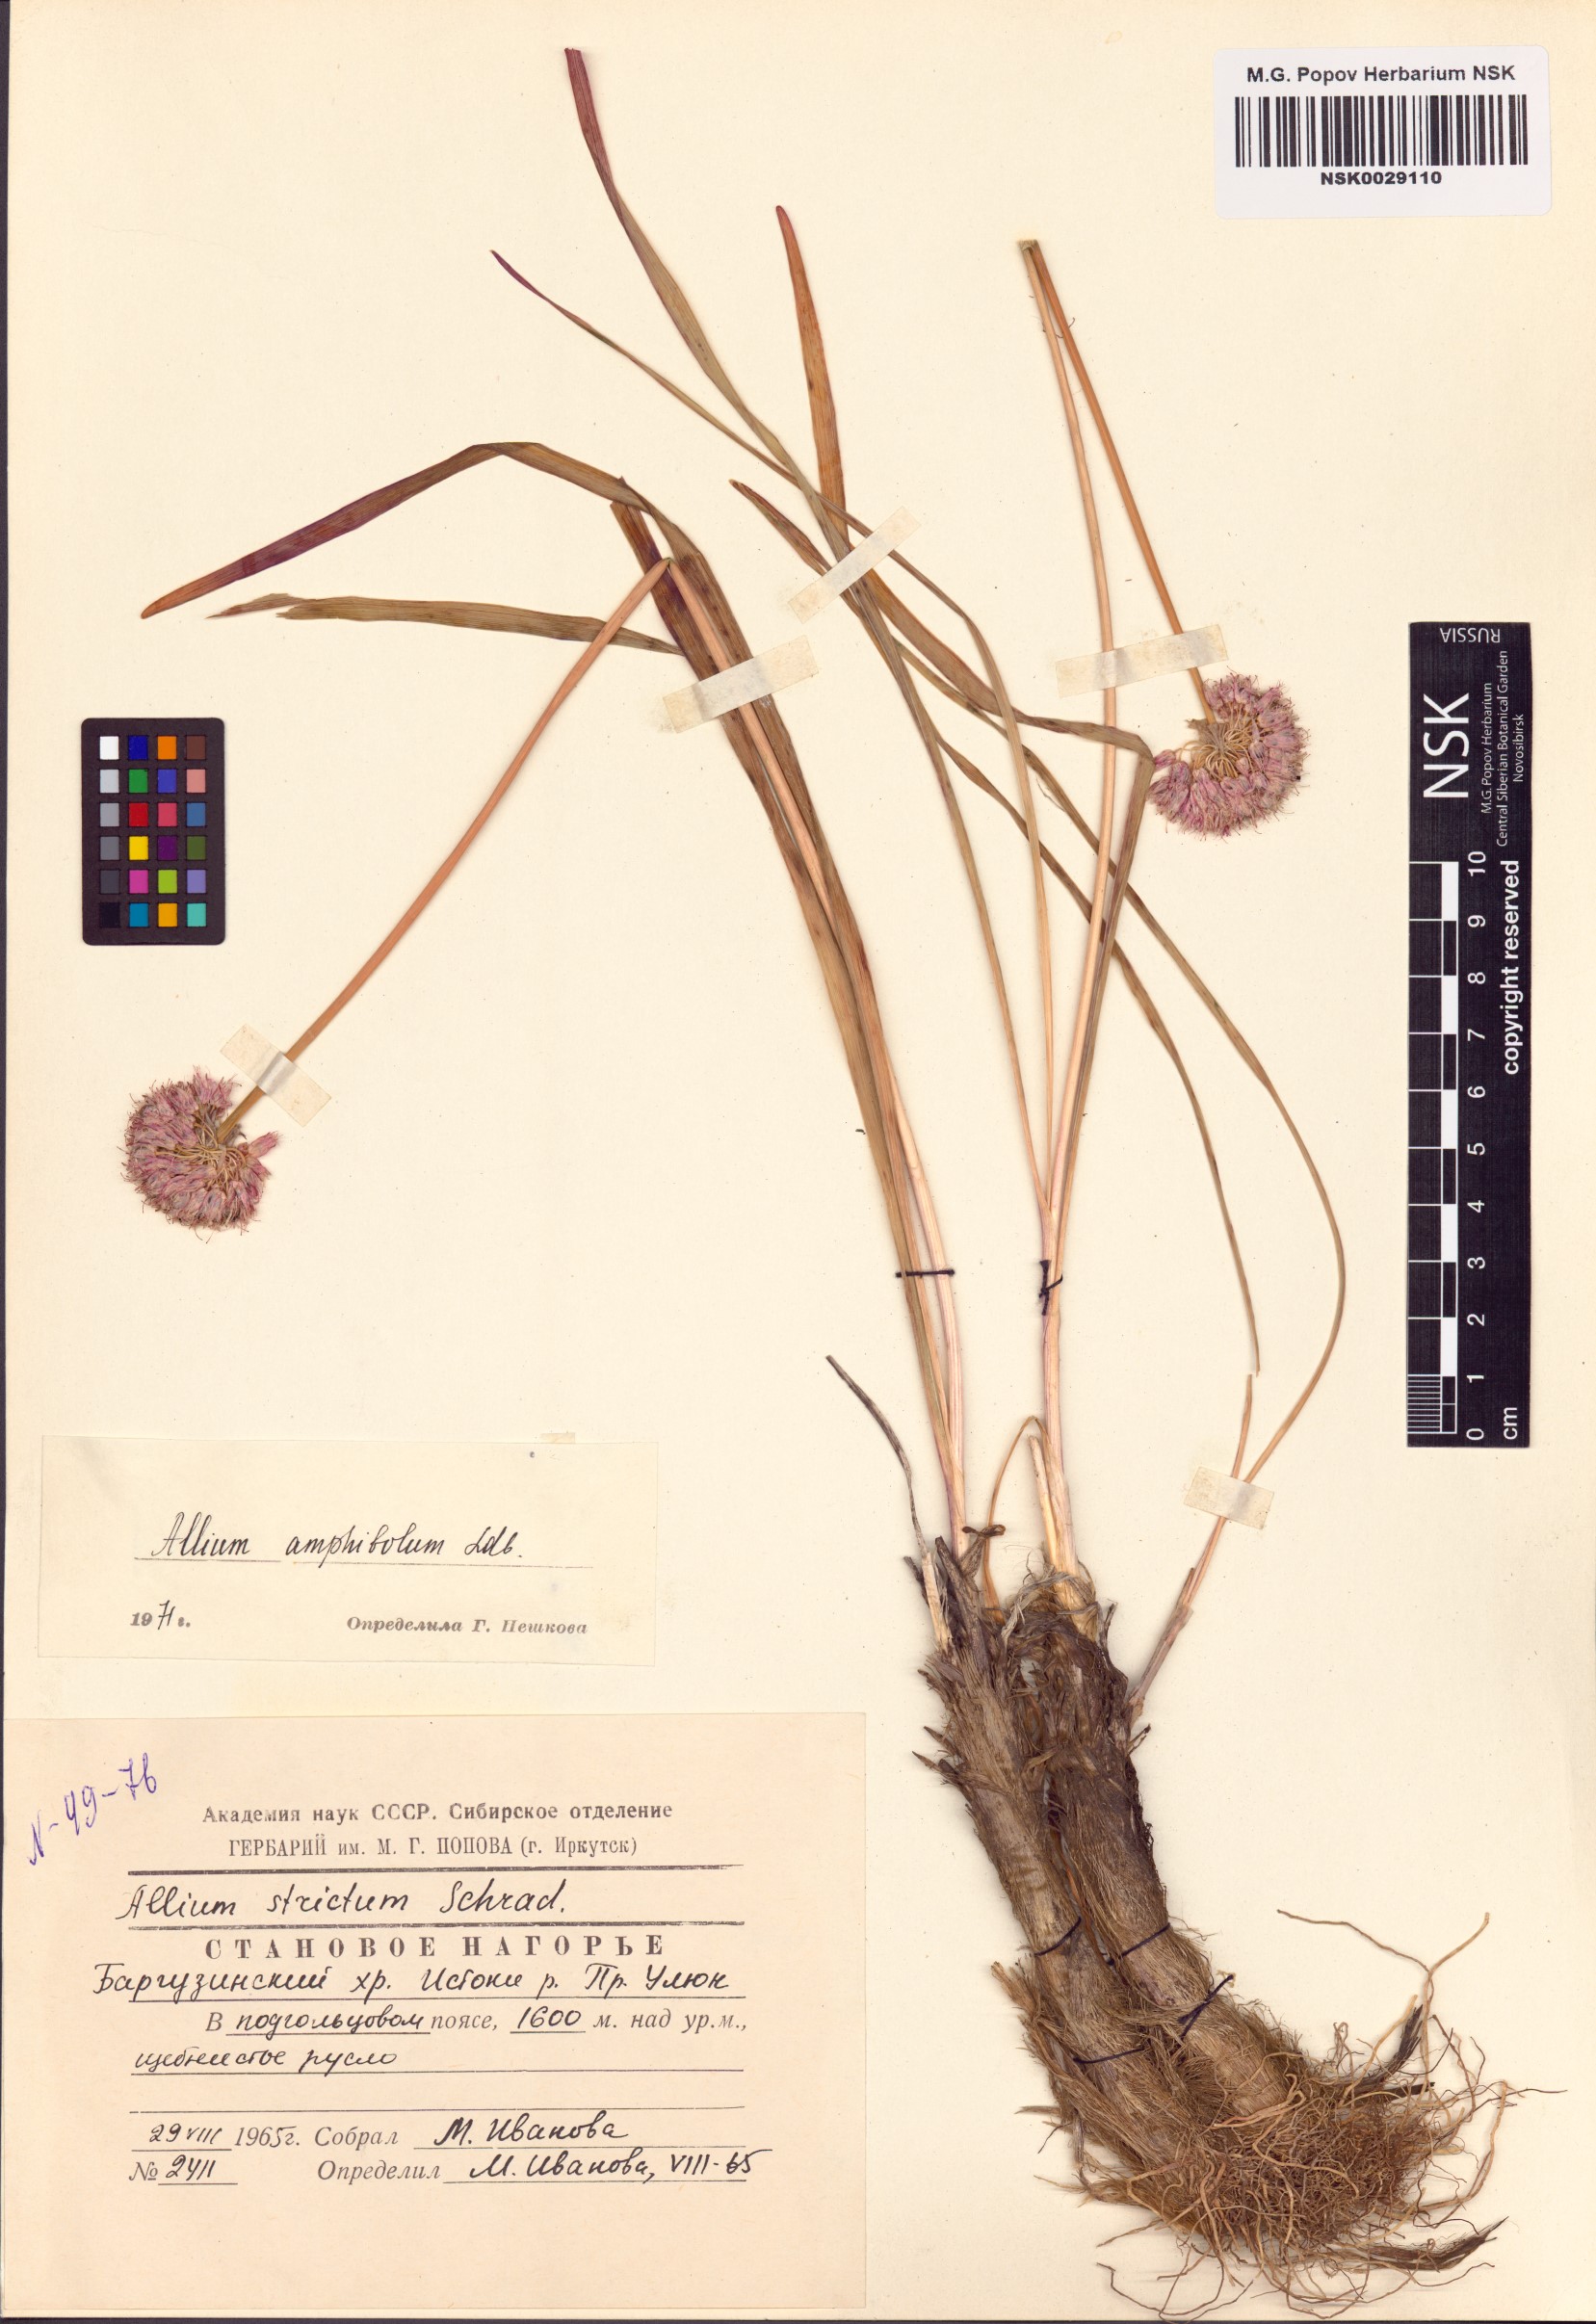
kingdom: Plantae
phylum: Tracheophyta
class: Liliopsida
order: Asparagales
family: Amaryllidaceae
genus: Allium
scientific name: Allium amphibolum
